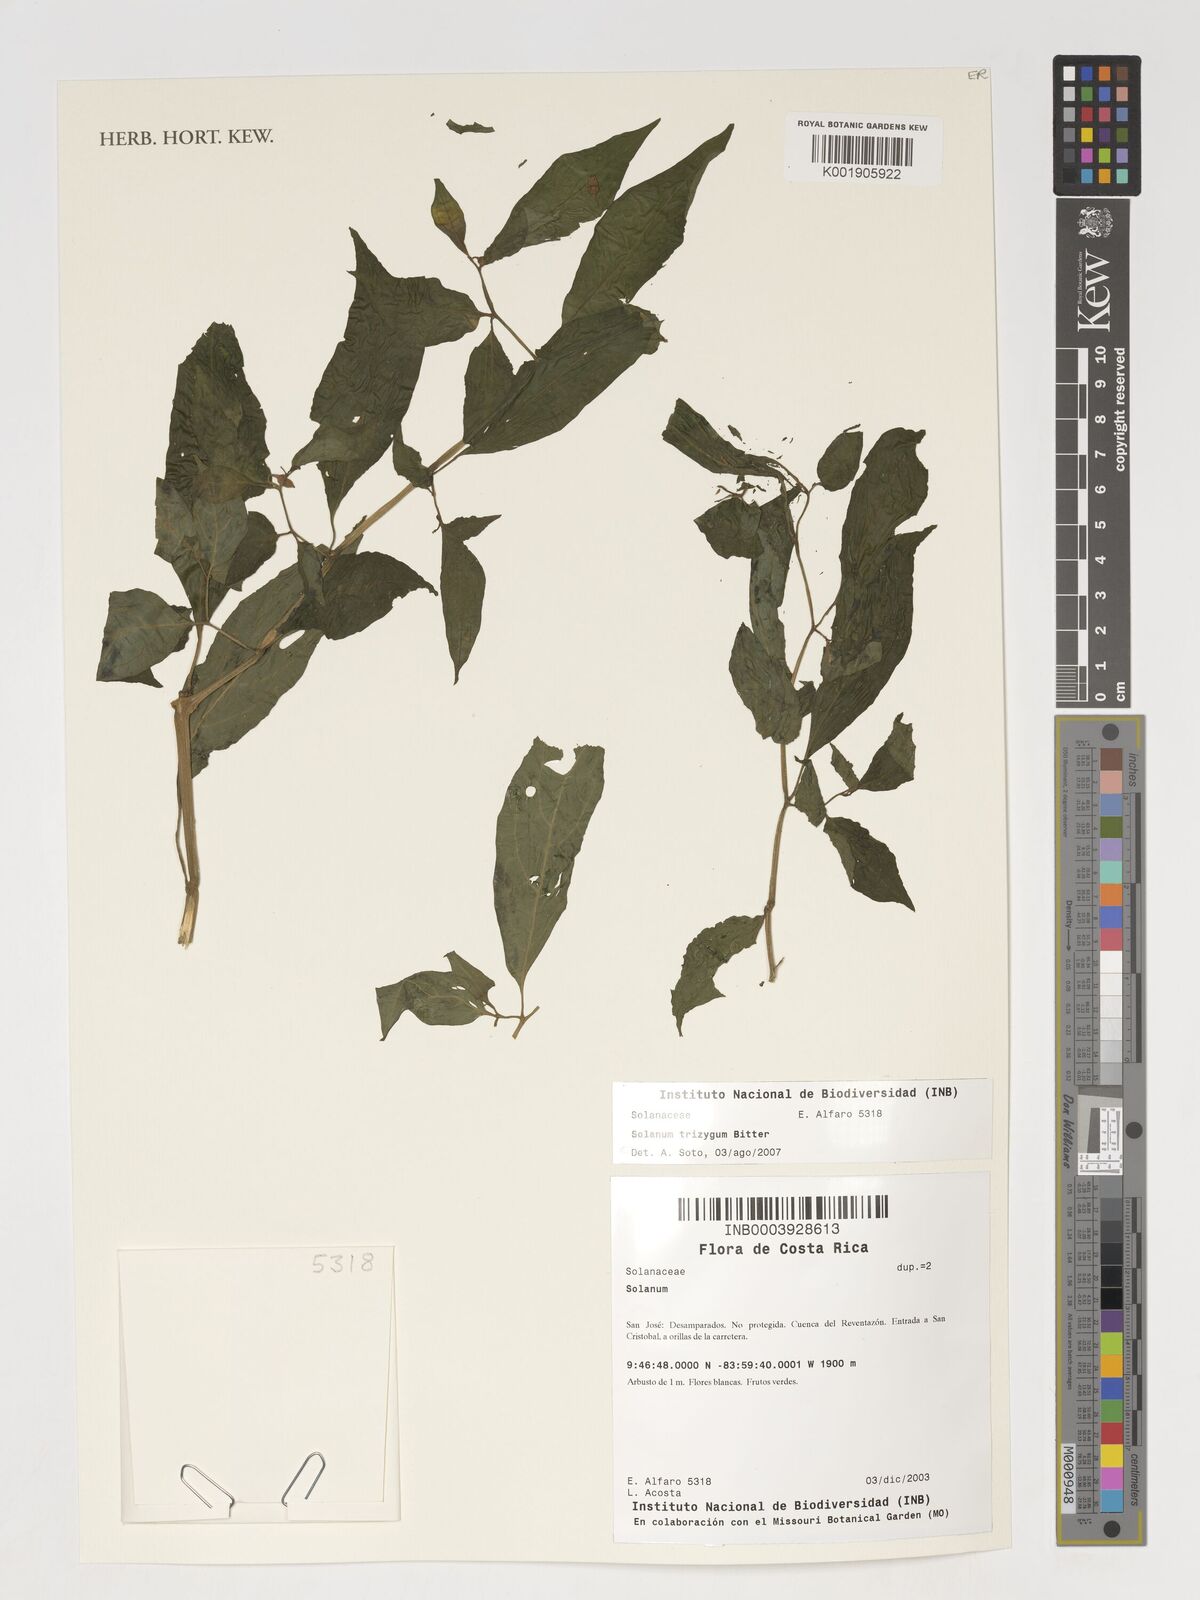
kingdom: Plantae
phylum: Tracheophyta
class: Magnoliopsida
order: Solanales
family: Solanaceae
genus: Solanum
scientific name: Solanum trizygum
